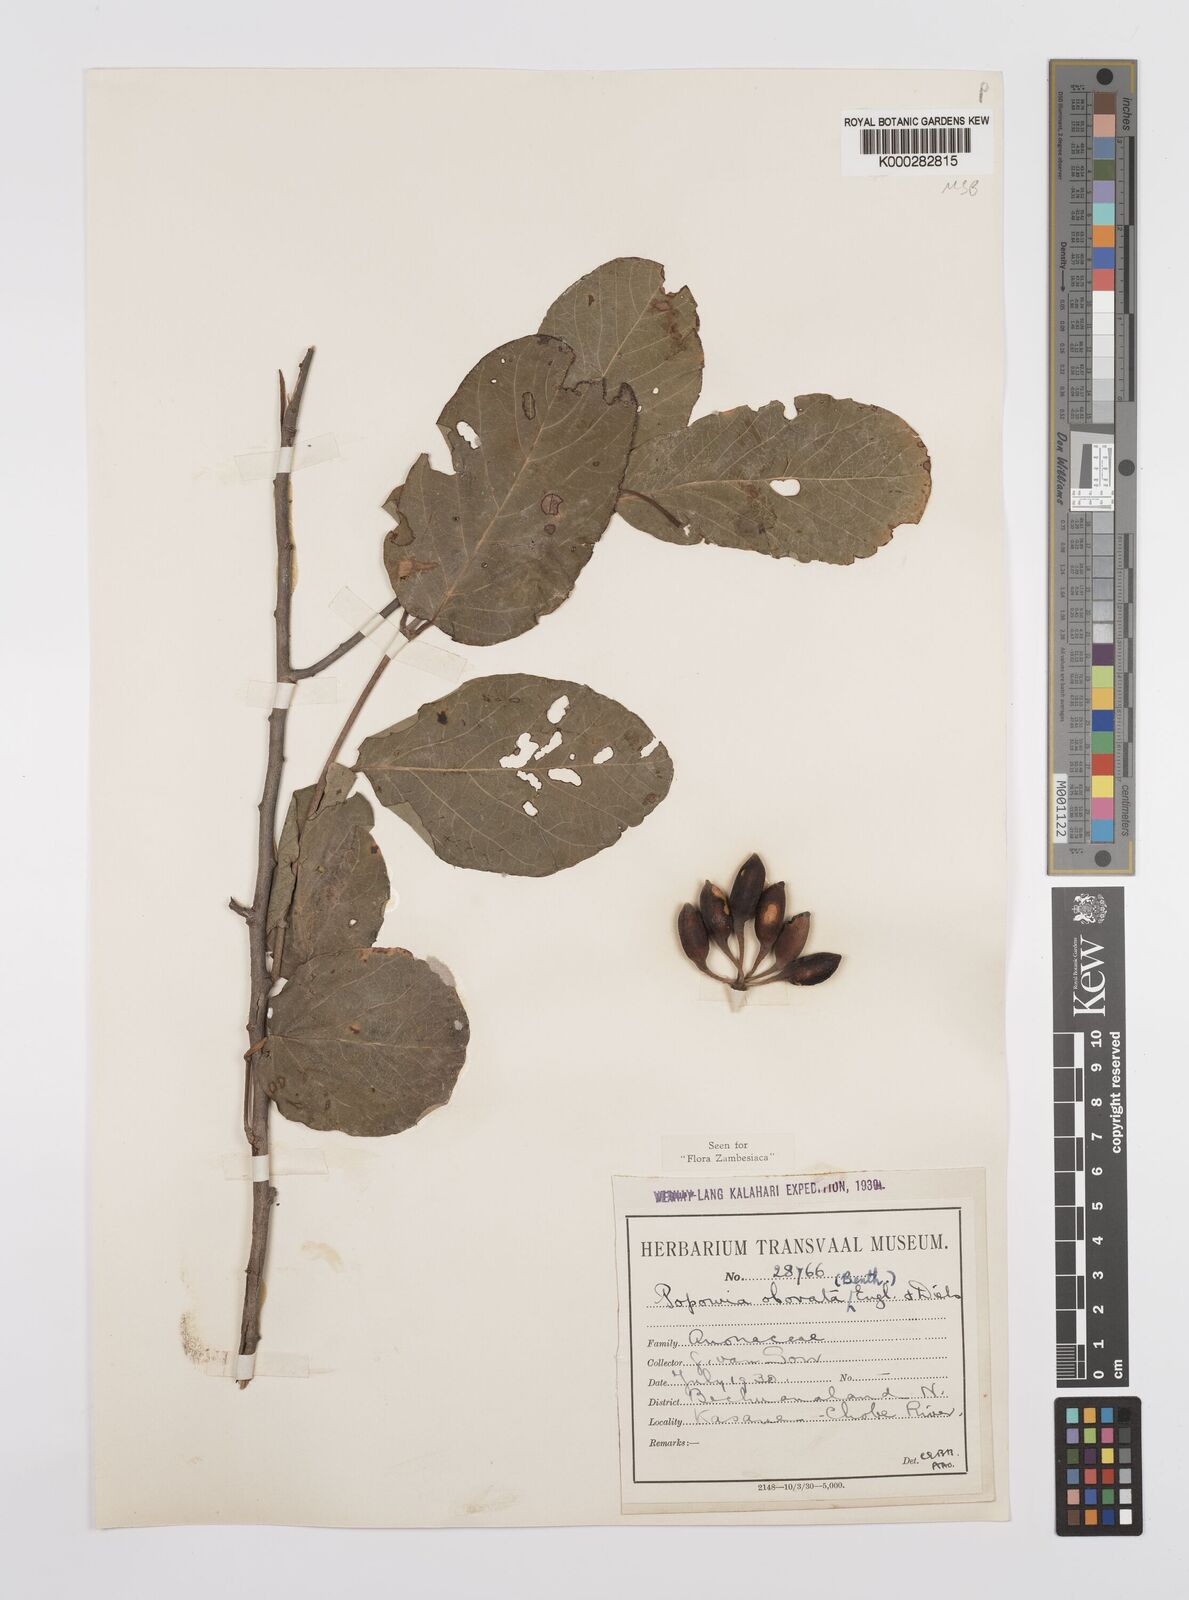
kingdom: Plantae
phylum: Tracheophyta
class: Magnoliopsida
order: Magnoliales
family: Annonaceae
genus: Friesodielsia
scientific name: Friesodielsia obovata
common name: Monkey fingers
